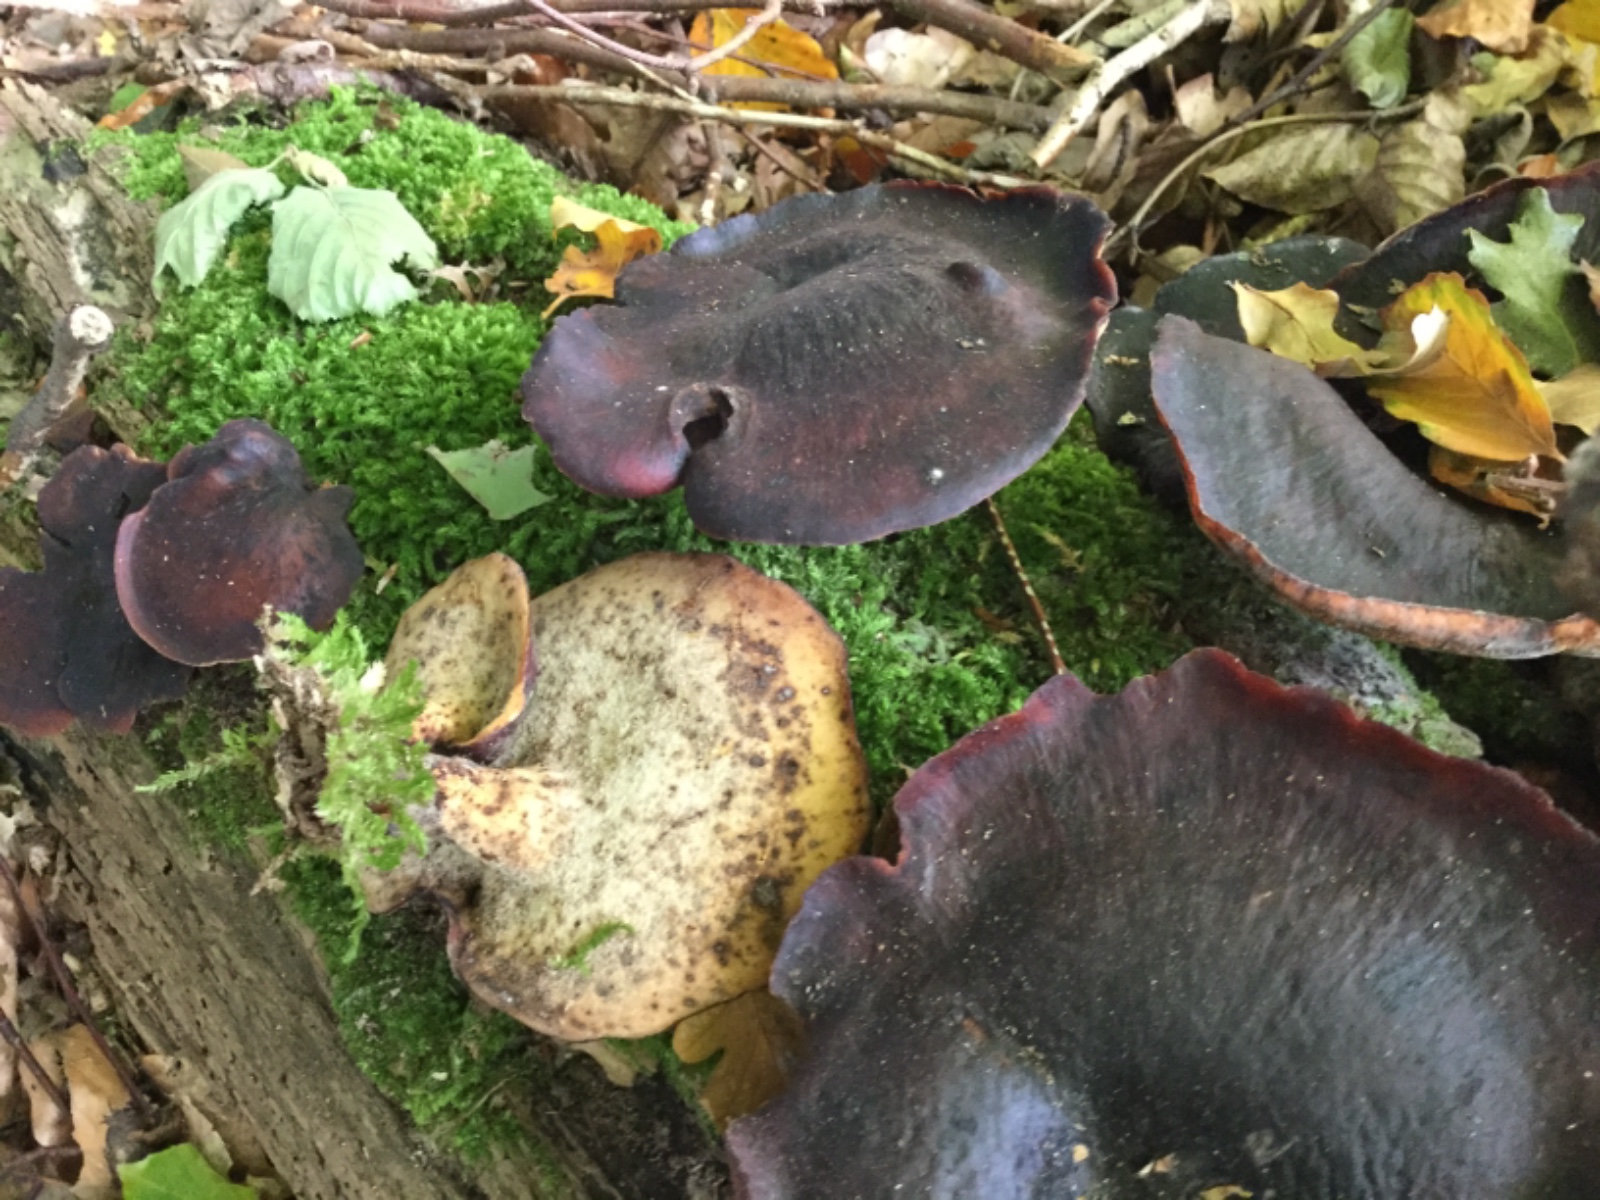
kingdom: Fungi
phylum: Basidiomycota
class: Agaricomycetes
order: Polyporales
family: Polyporaceae
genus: Picipes
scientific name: Picipes badius
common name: kastaniebrun stilkporesvamp
